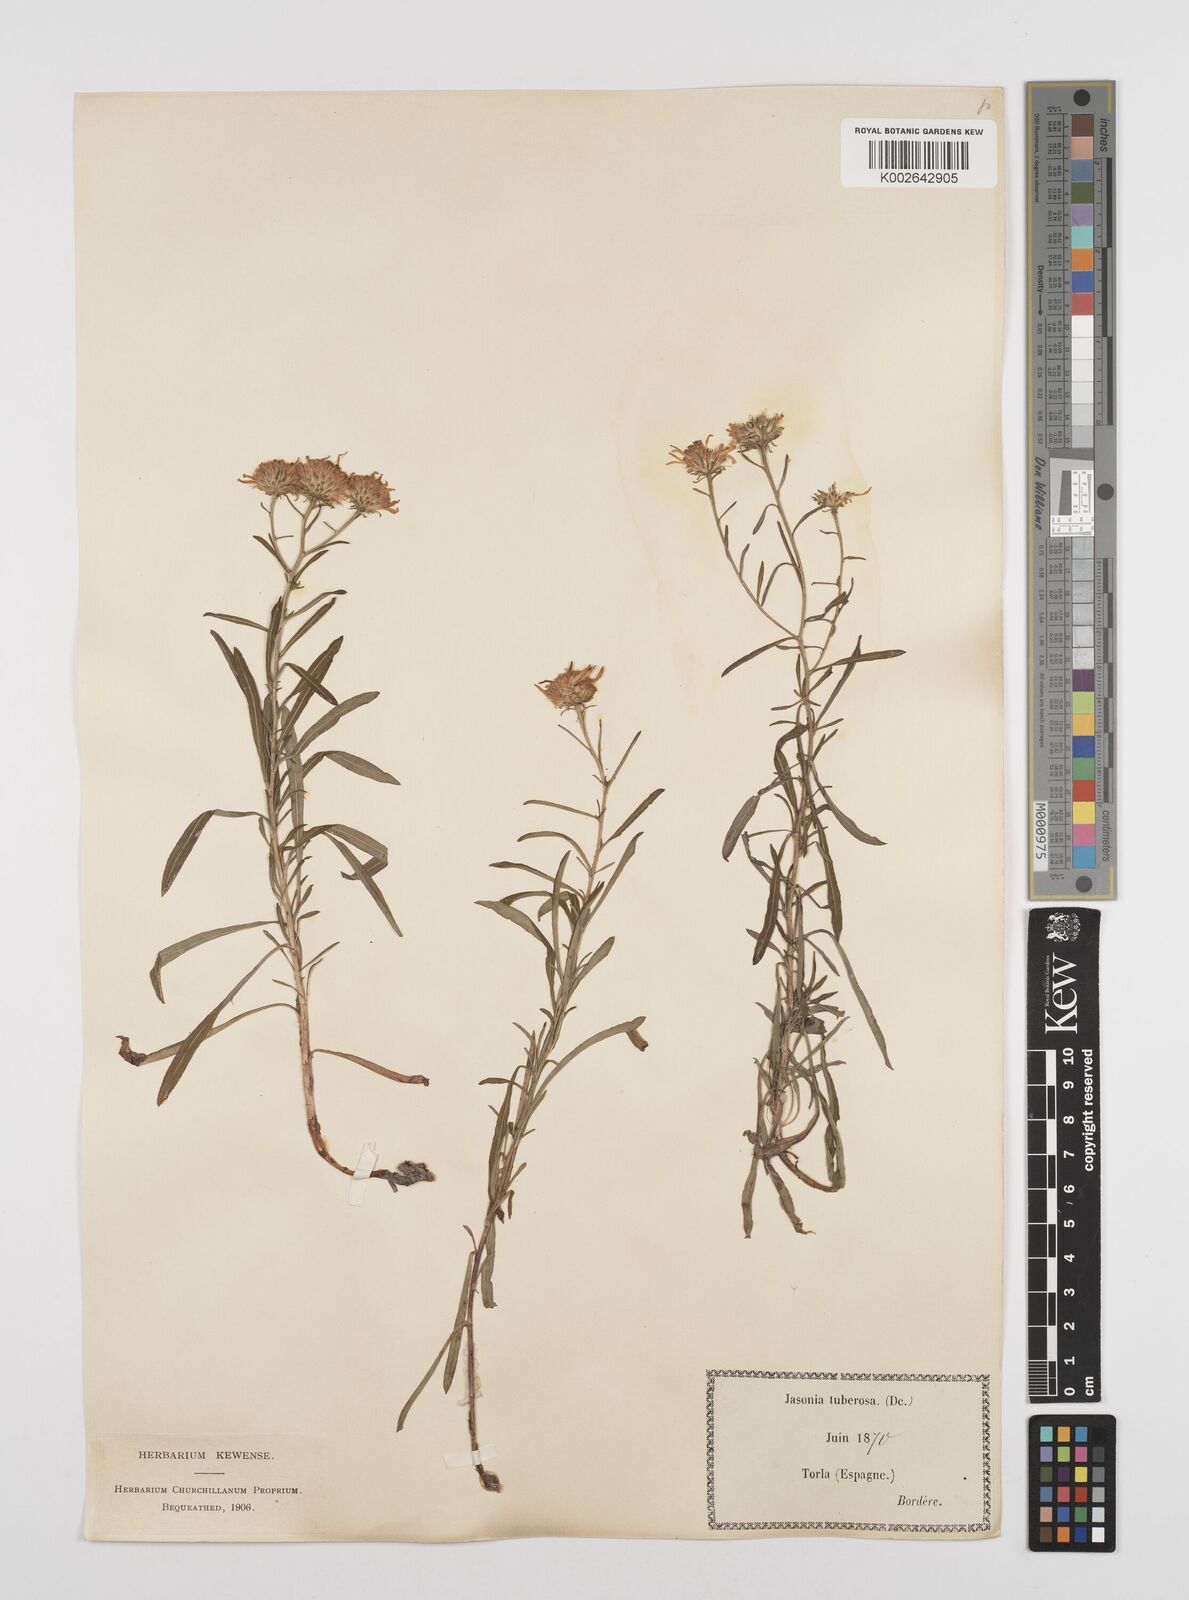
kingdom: Plantae
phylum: Tracheophyta
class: Magnoliopsida
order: Asterales
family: Asteraceae
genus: Jasonia
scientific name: Jasonia tuberosa
